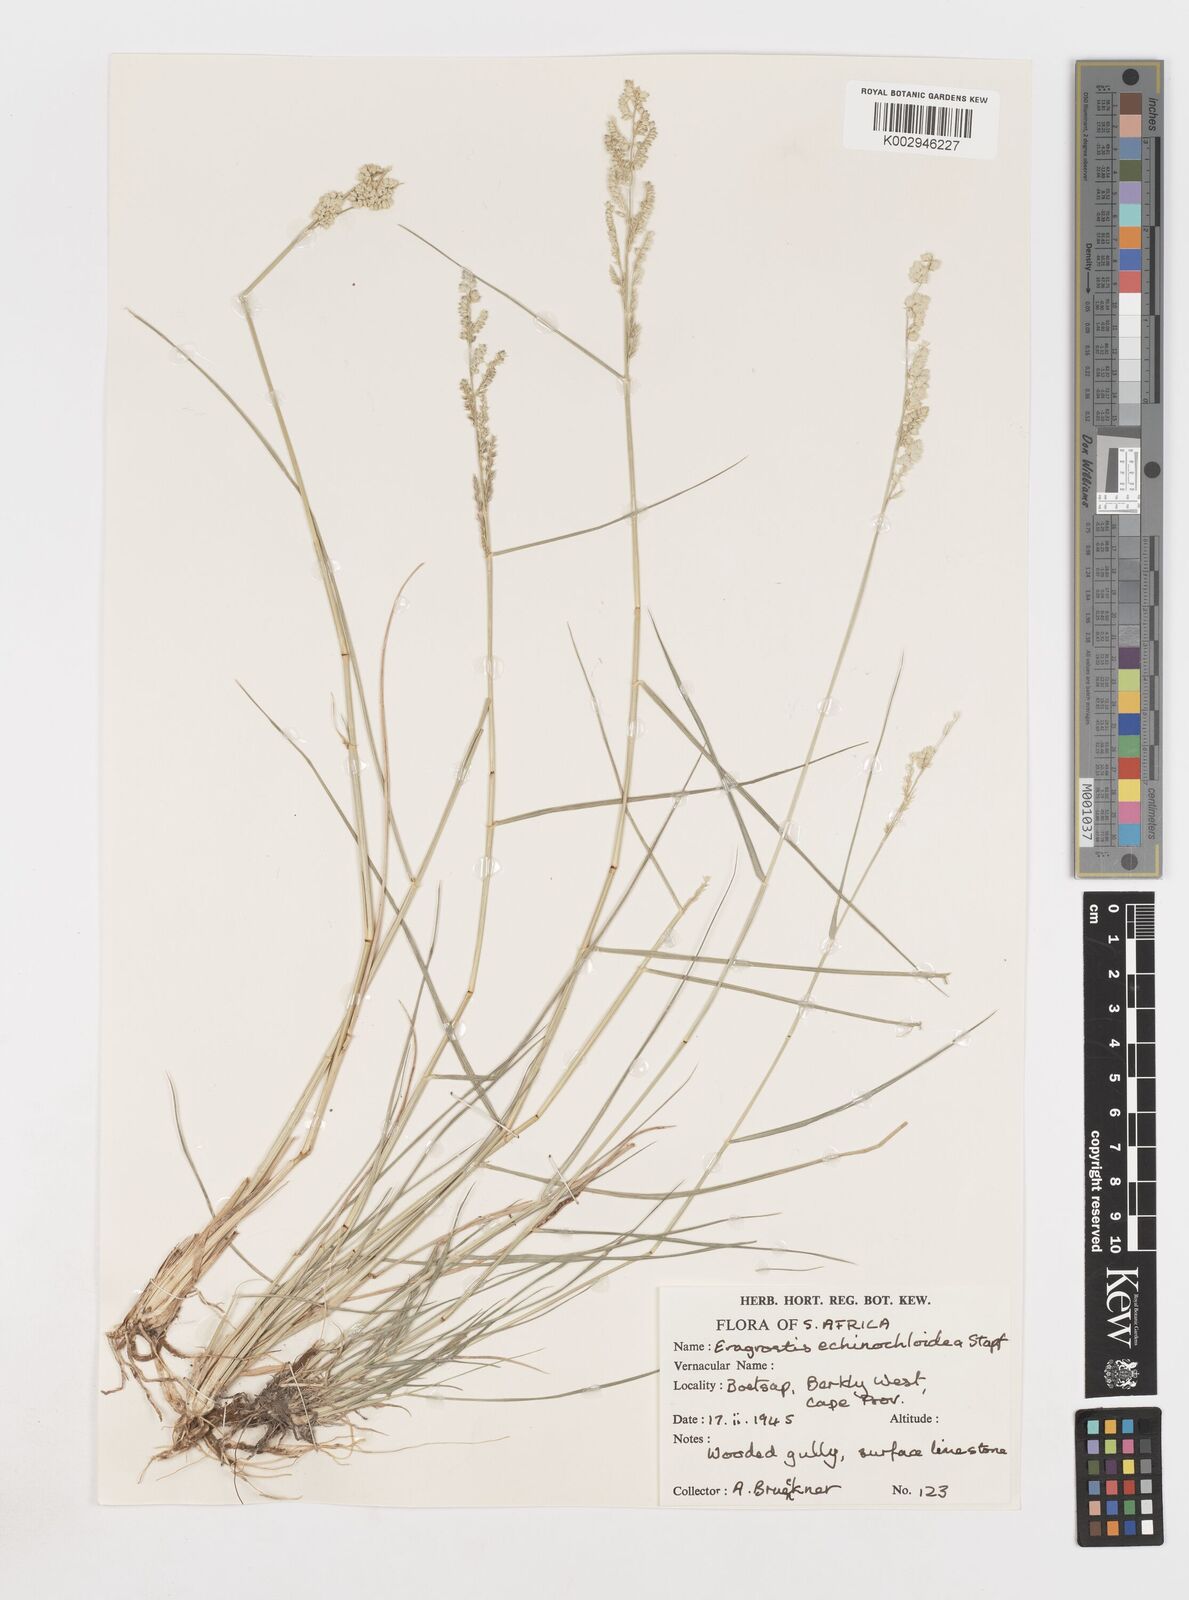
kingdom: Plantae
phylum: Tracheophyta
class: Liliopsida
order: Poales
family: Poaceae
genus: Eragrostis
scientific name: Eragrostis echinochloidea
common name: African lovegrass
